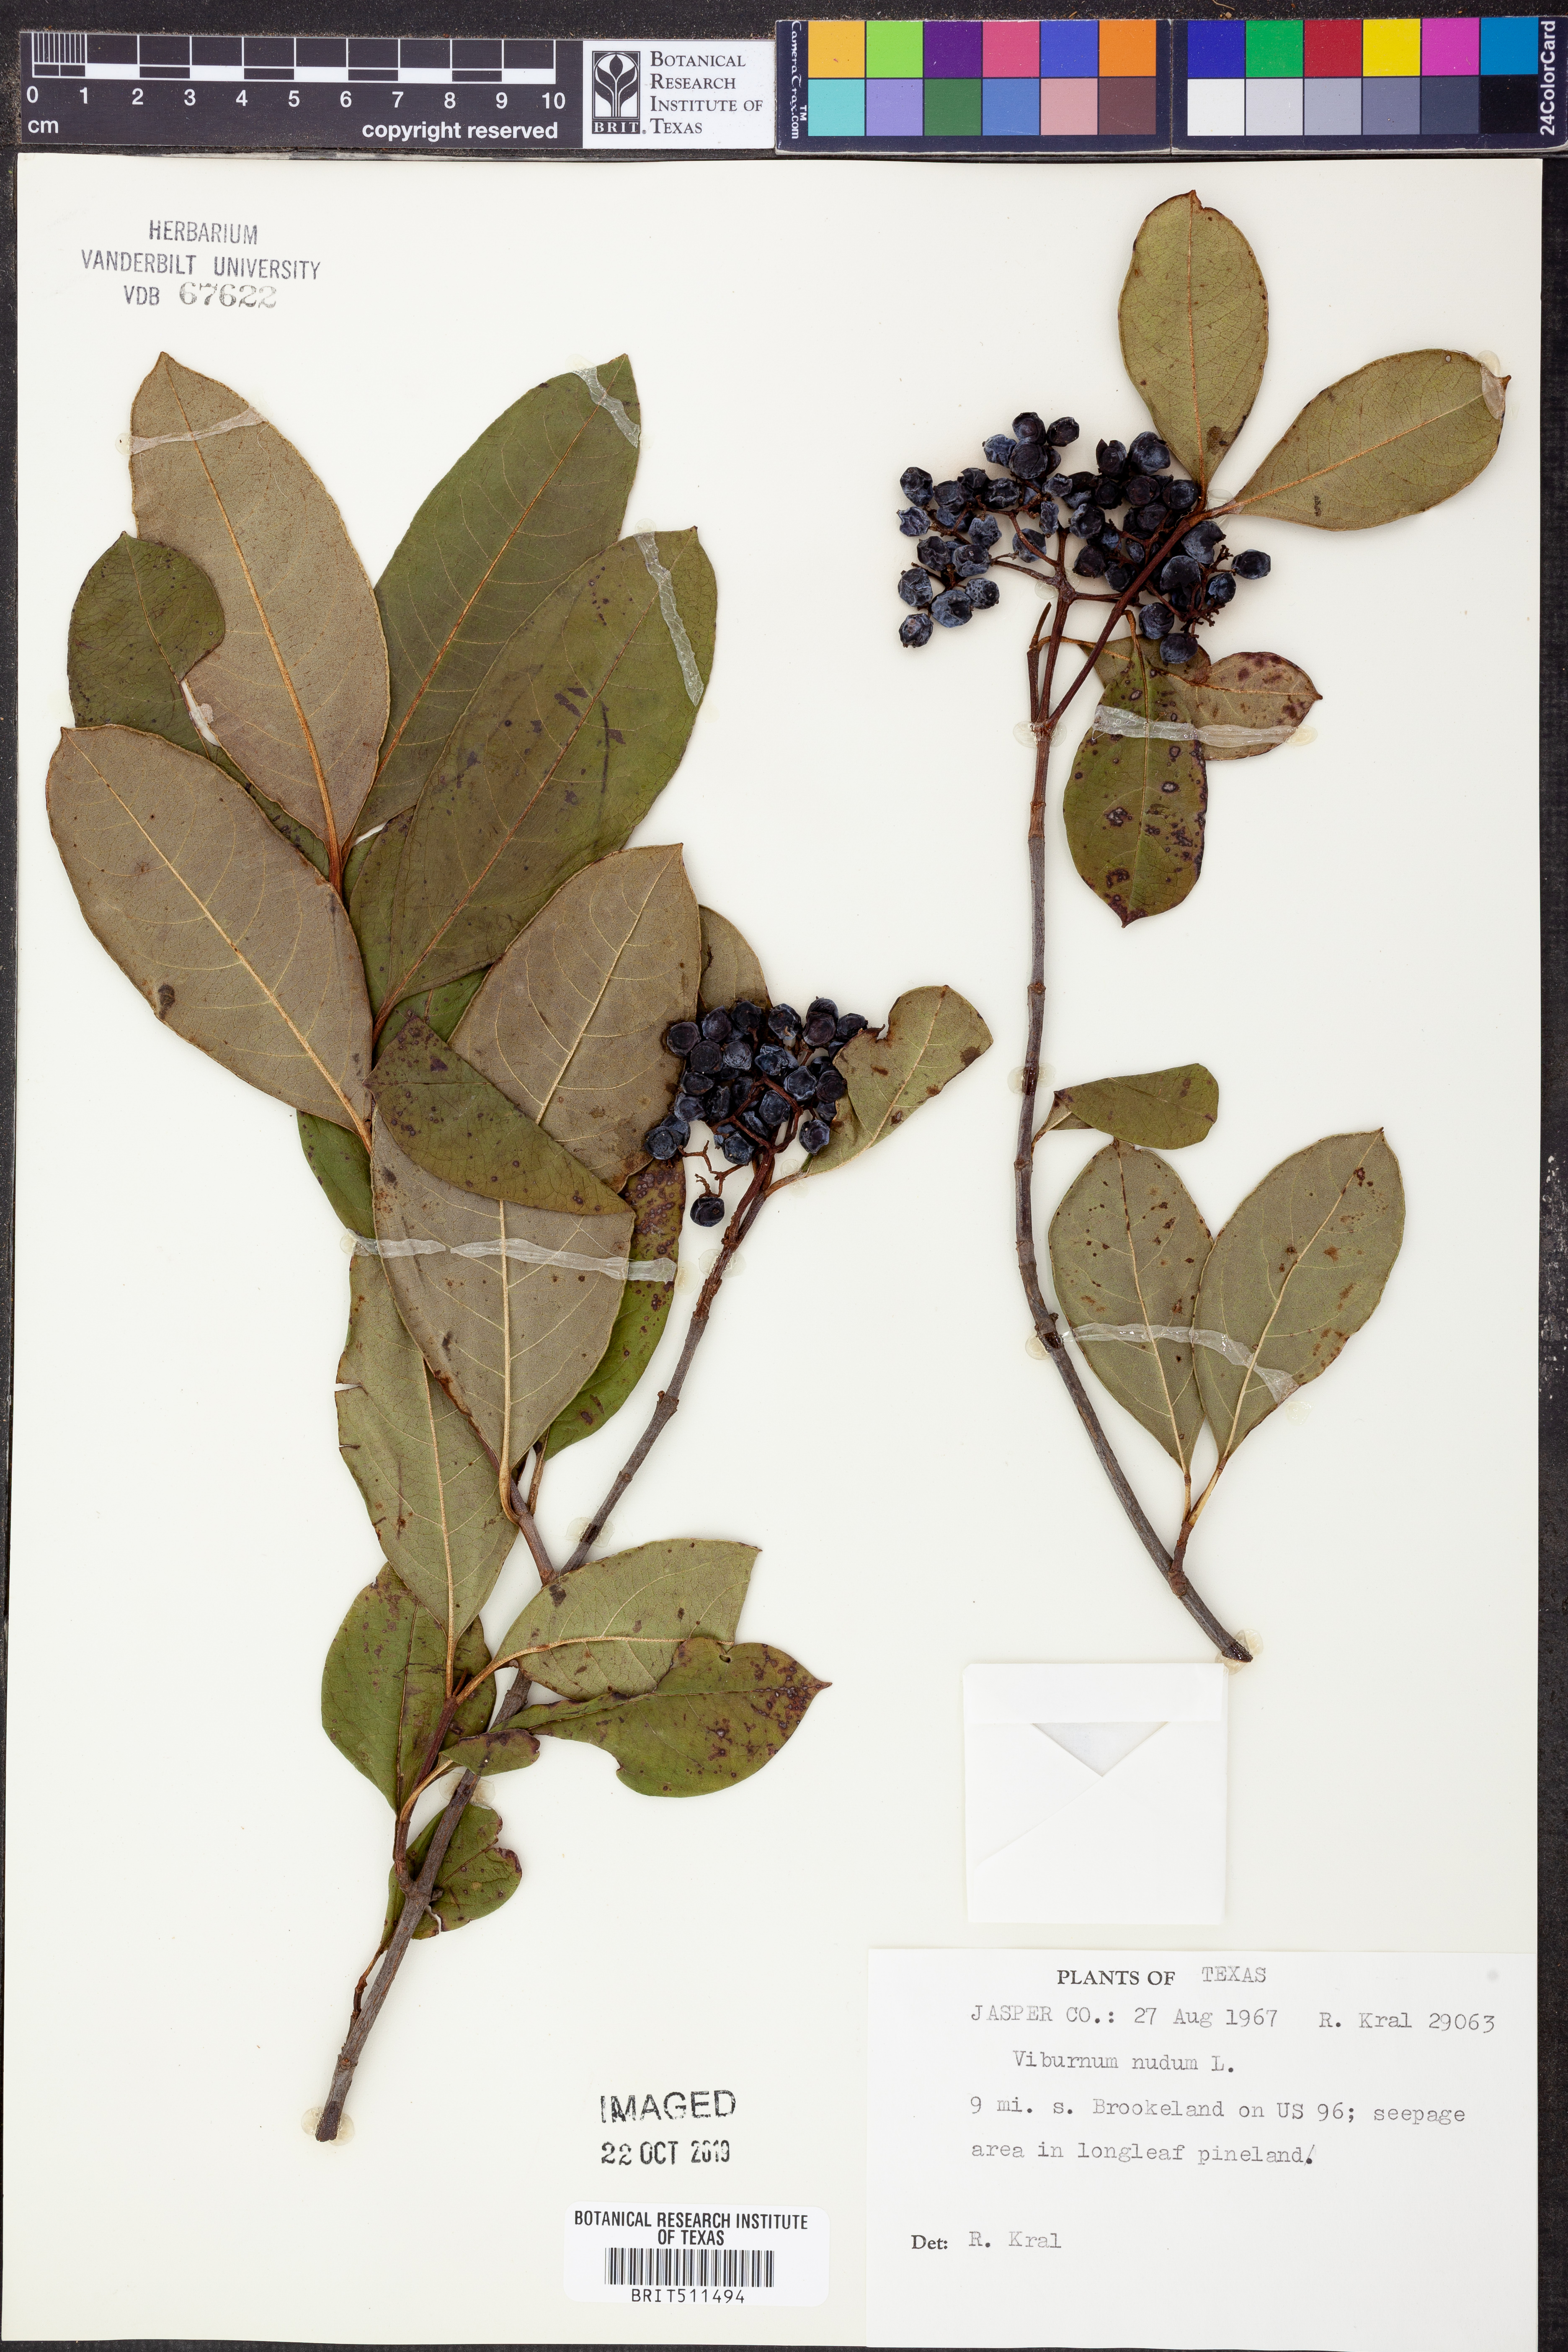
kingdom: Plantae
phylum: Tracheophyta
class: Magnoliopsida
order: Dipsacales
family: Viburnaceae
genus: Viburnum
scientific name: Viburnum nudum
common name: Possum haw
